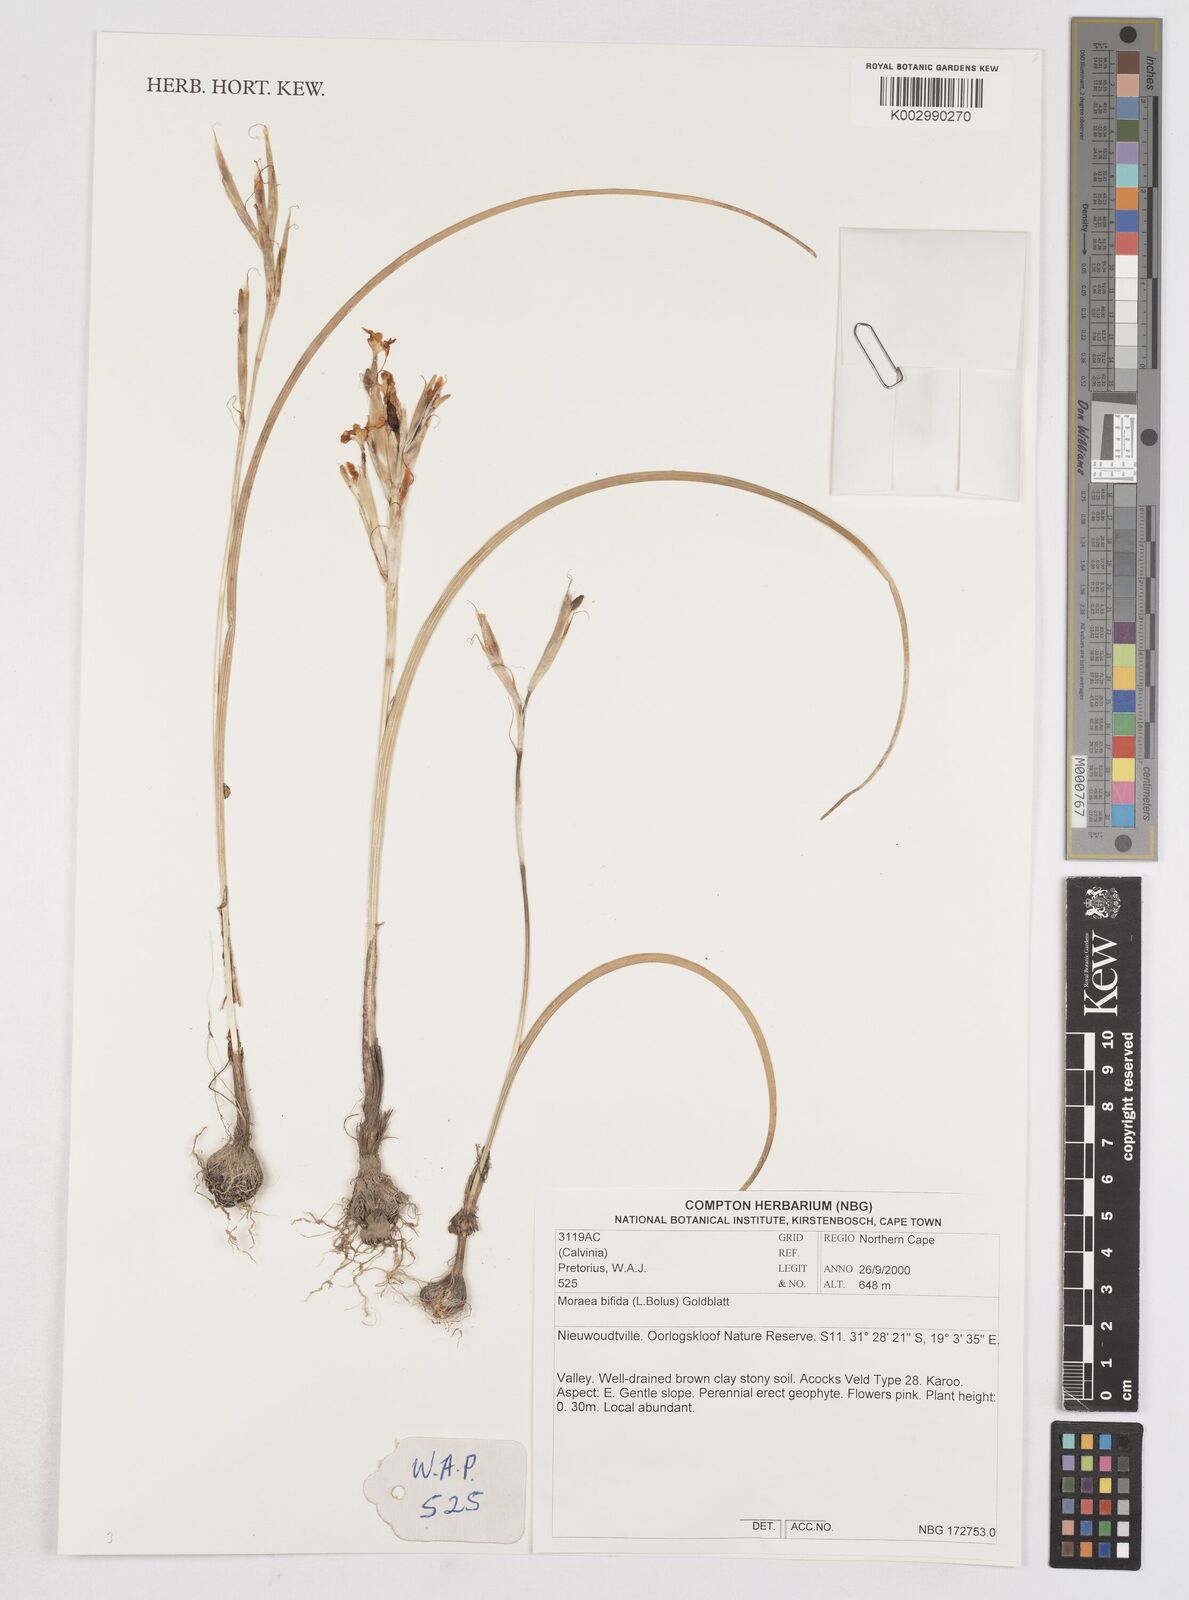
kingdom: Plantae
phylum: Tracheophyta
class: Liliopsida
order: Asparagales
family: Iridaceae
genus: Moraea
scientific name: Moraea bifida
